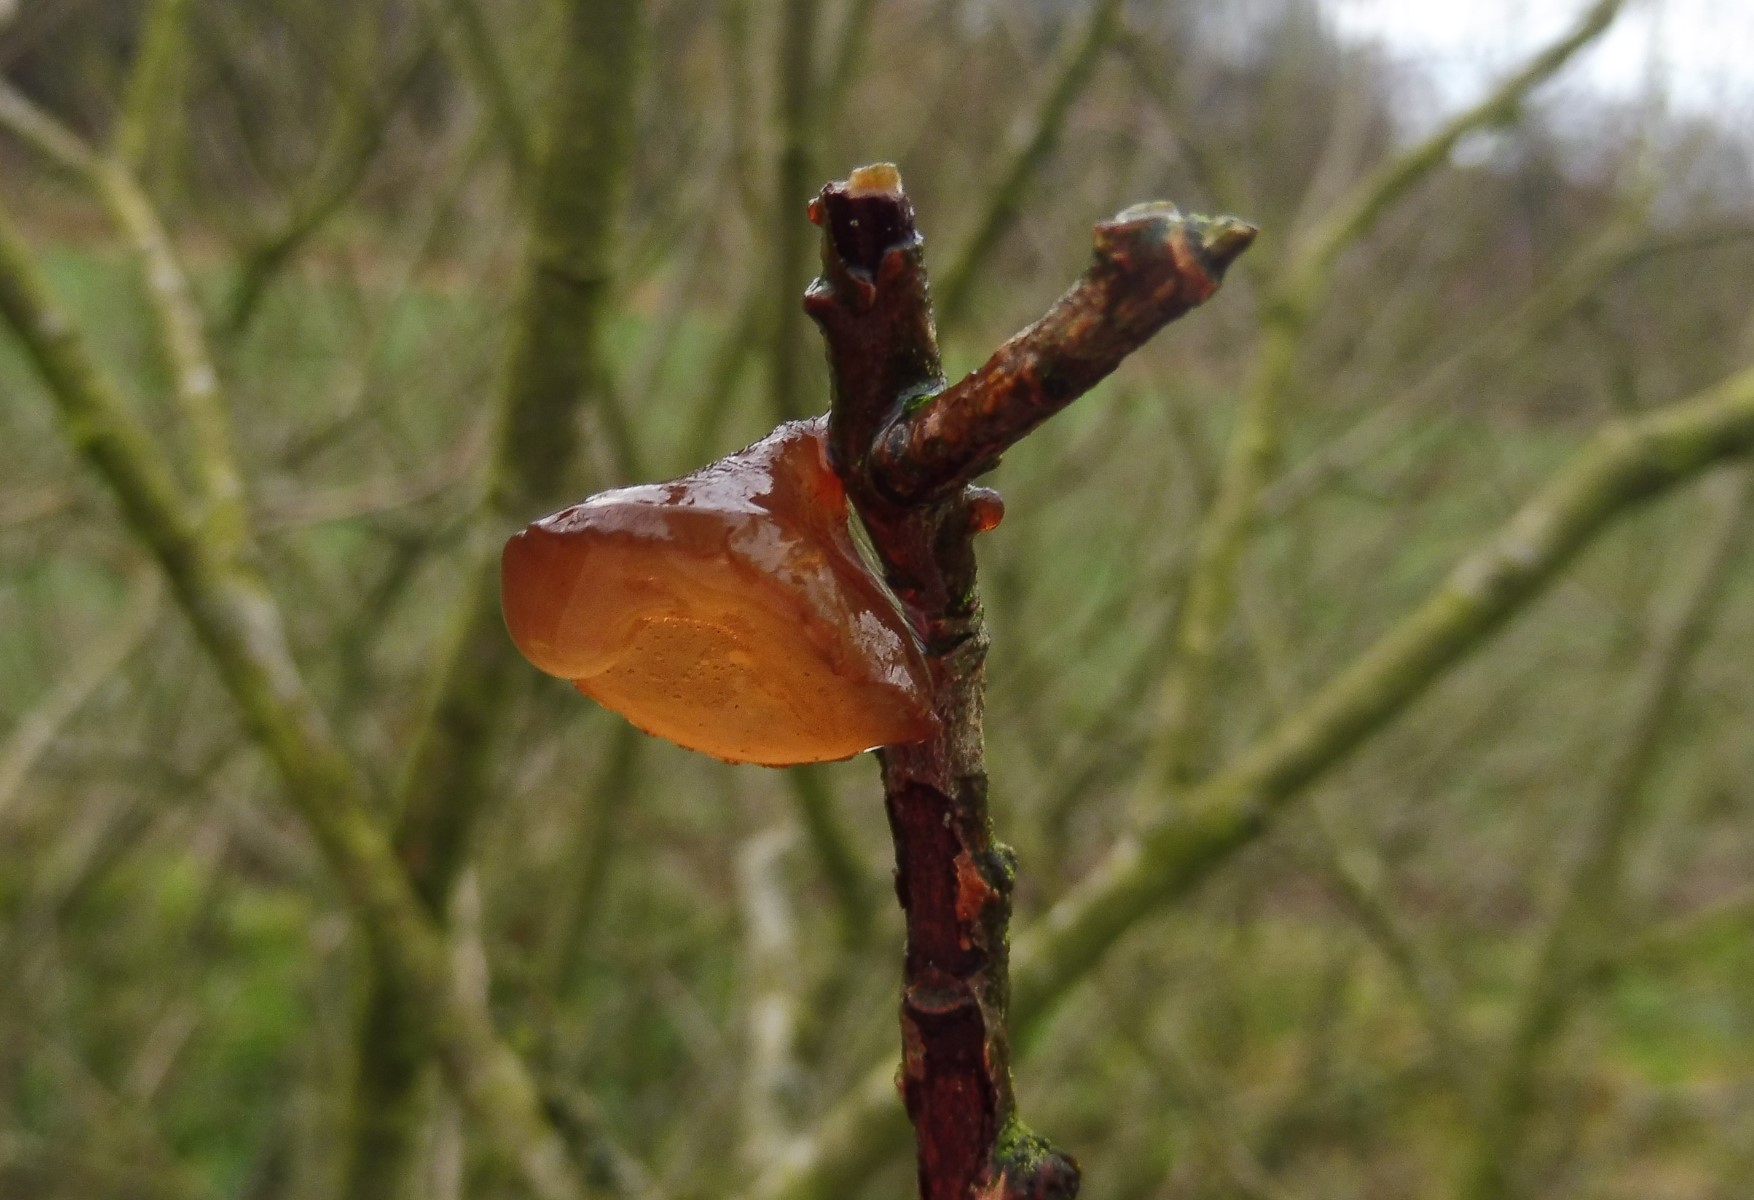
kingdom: Fungi
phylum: Basidiomycota
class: Agaricomycetes
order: Auriculariales
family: Auriculariaceae
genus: Exidia
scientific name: Exidia recisa
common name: pile-bævretop
